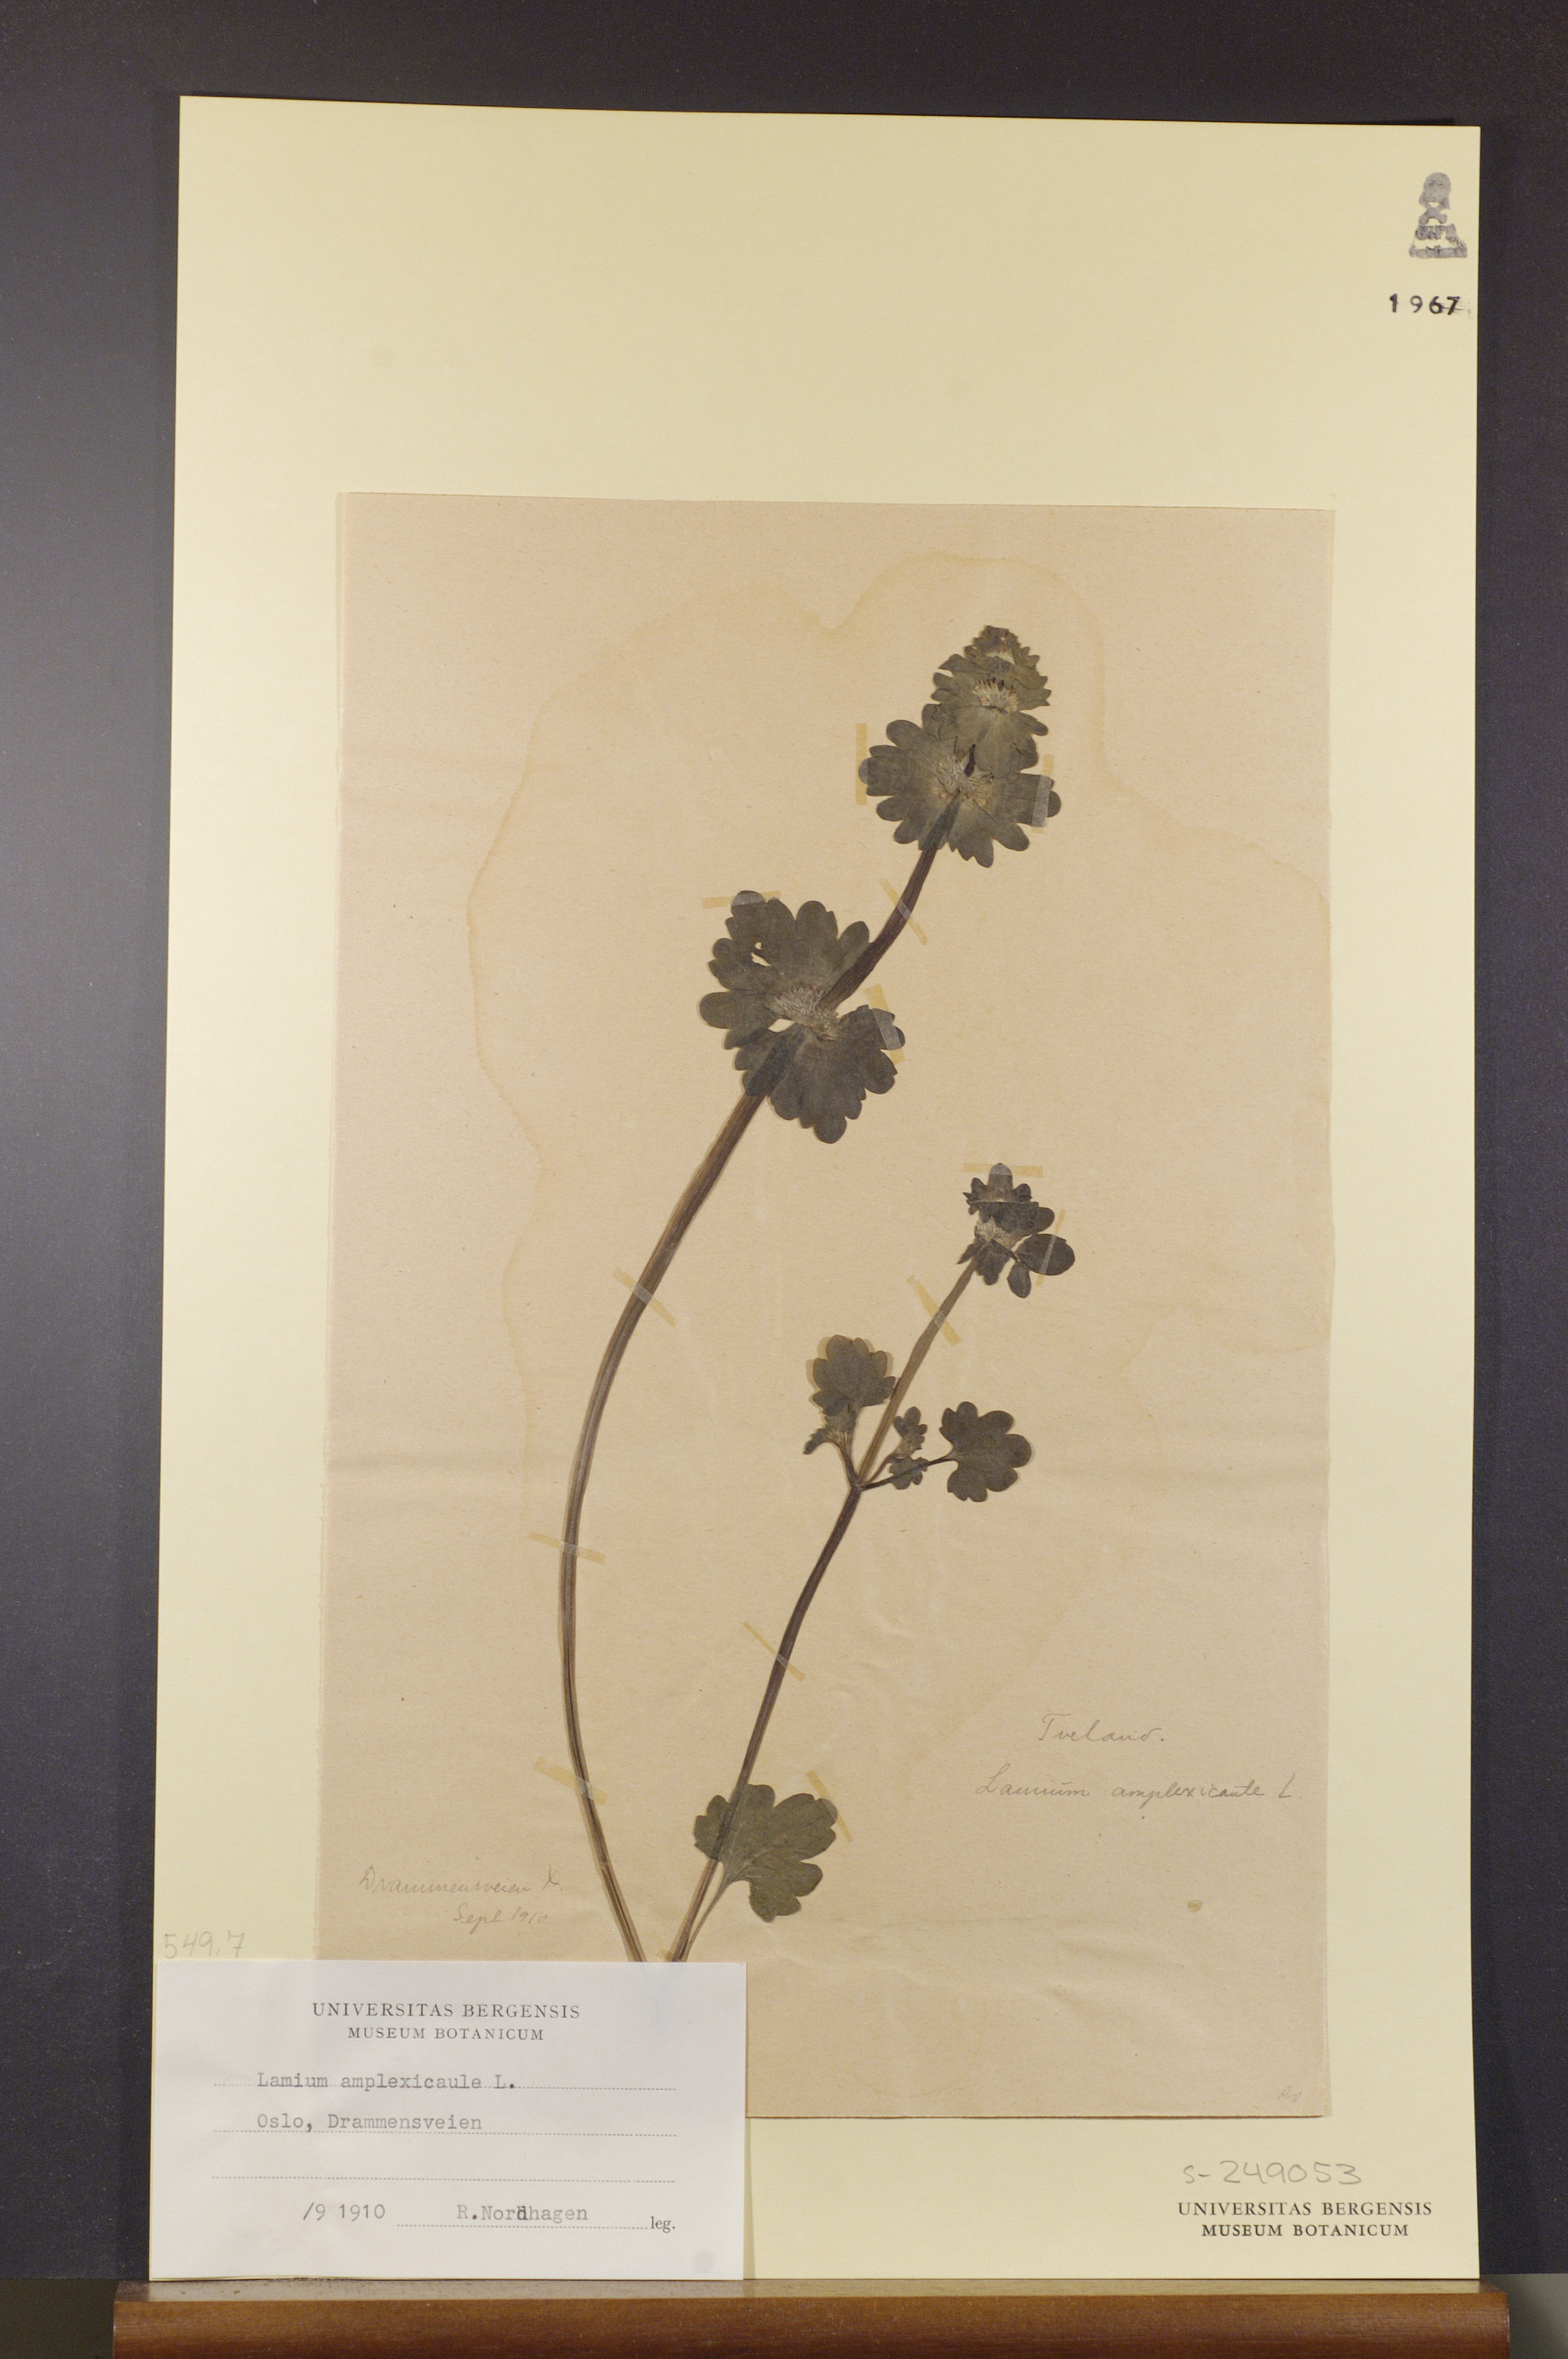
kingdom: Plantae
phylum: Tracheophyta
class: Magnoliopsida
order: Lamiales
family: Lamiaceae
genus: Lamium
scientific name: Lamium amplexicaule
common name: Henbit dead-nettle
